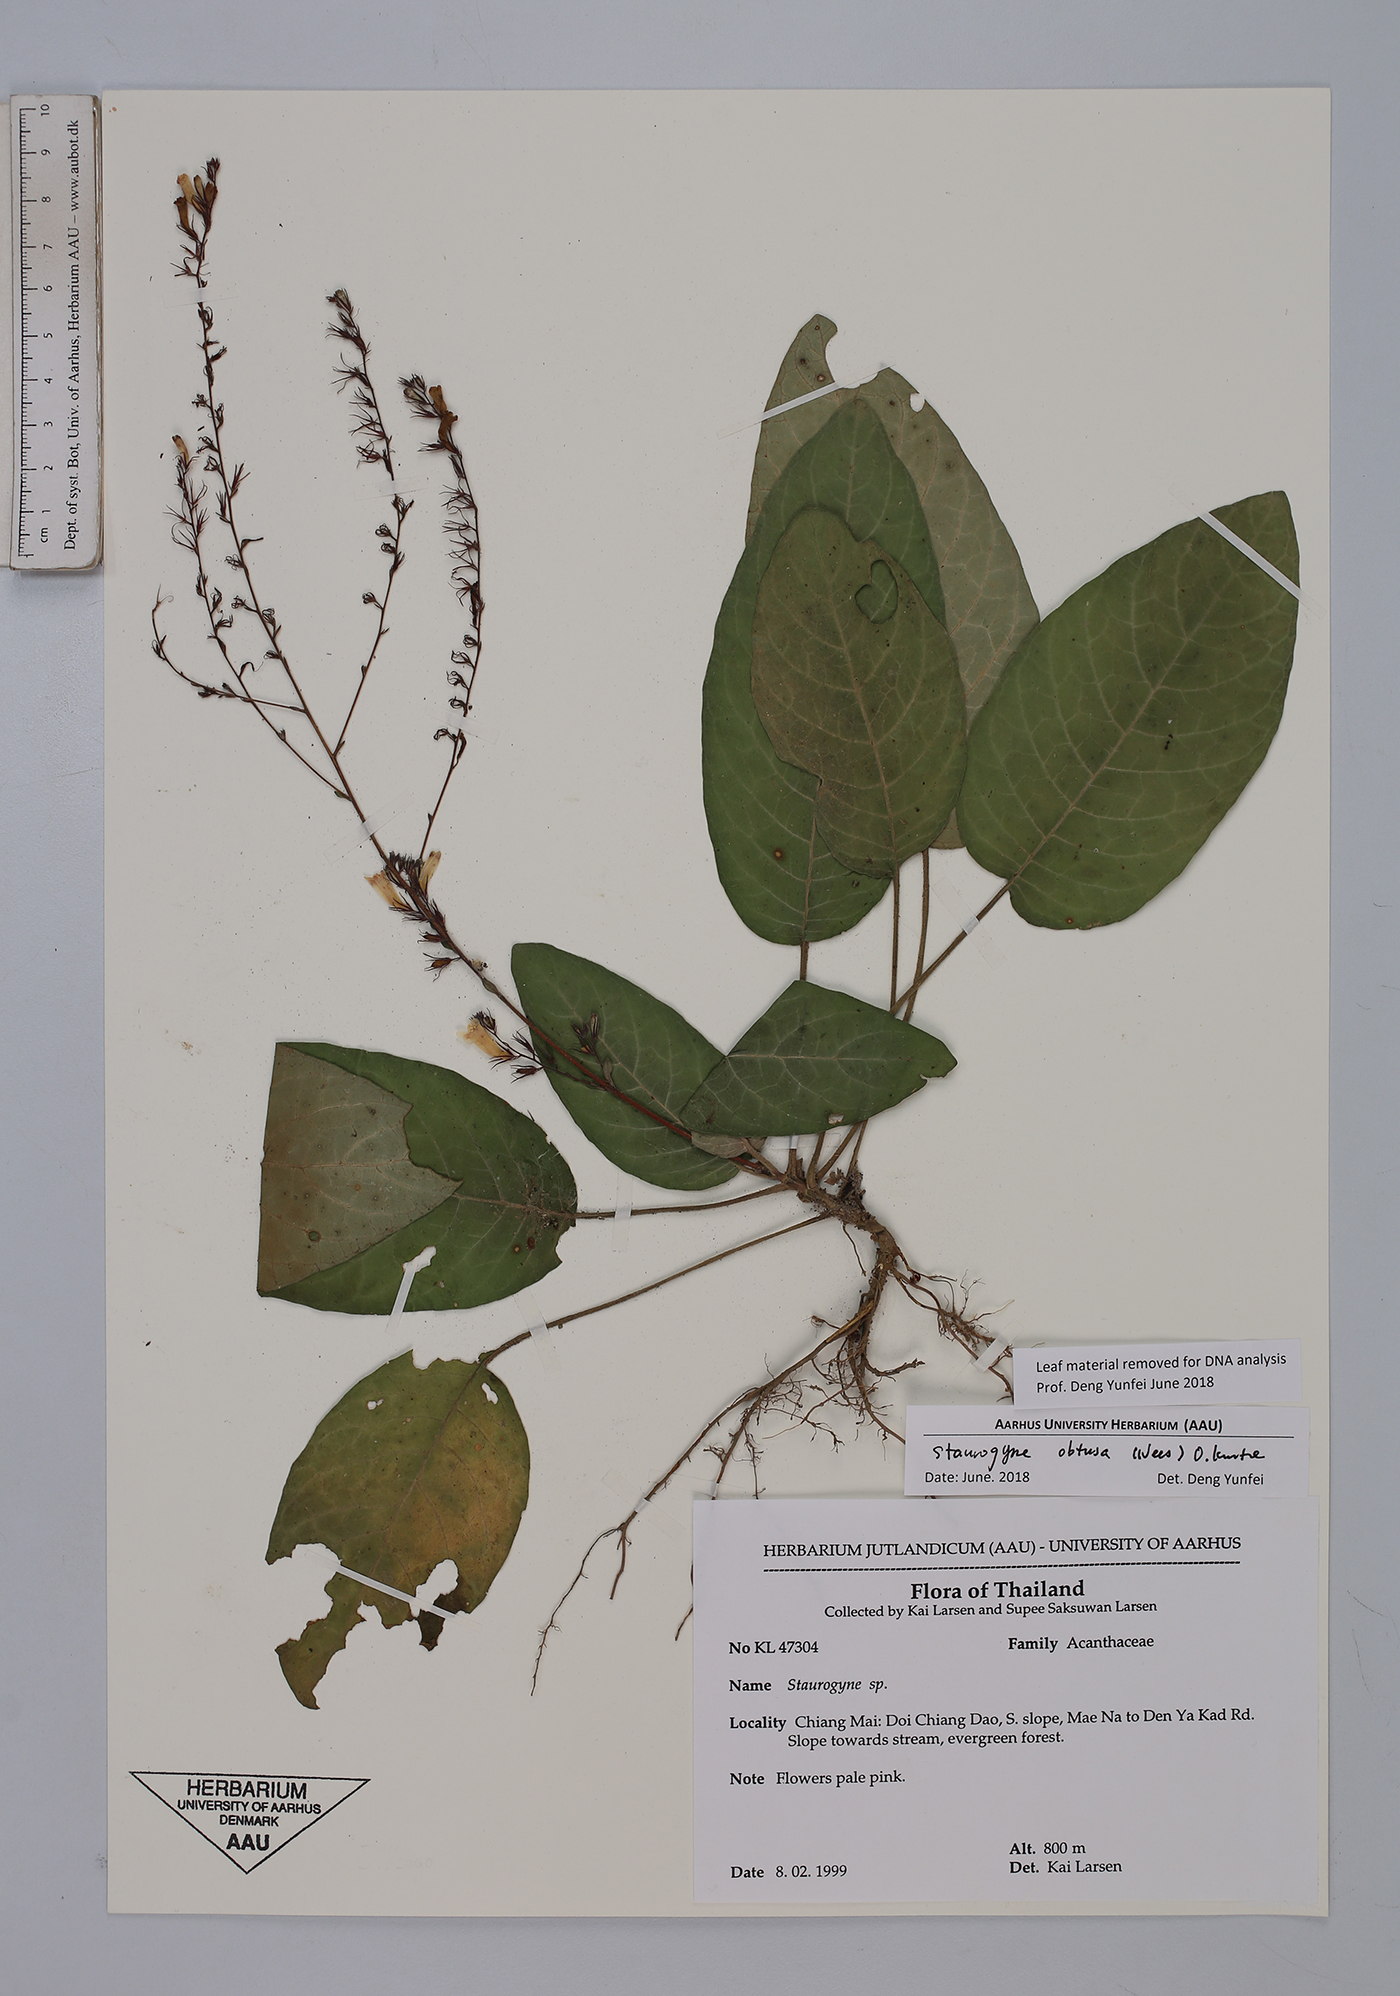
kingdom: Plantae
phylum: Tracheophyta
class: Magnoliopsida
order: Lamiales
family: Acanthaceae
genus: Staurogyne
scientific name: Staurogyne obtusa
